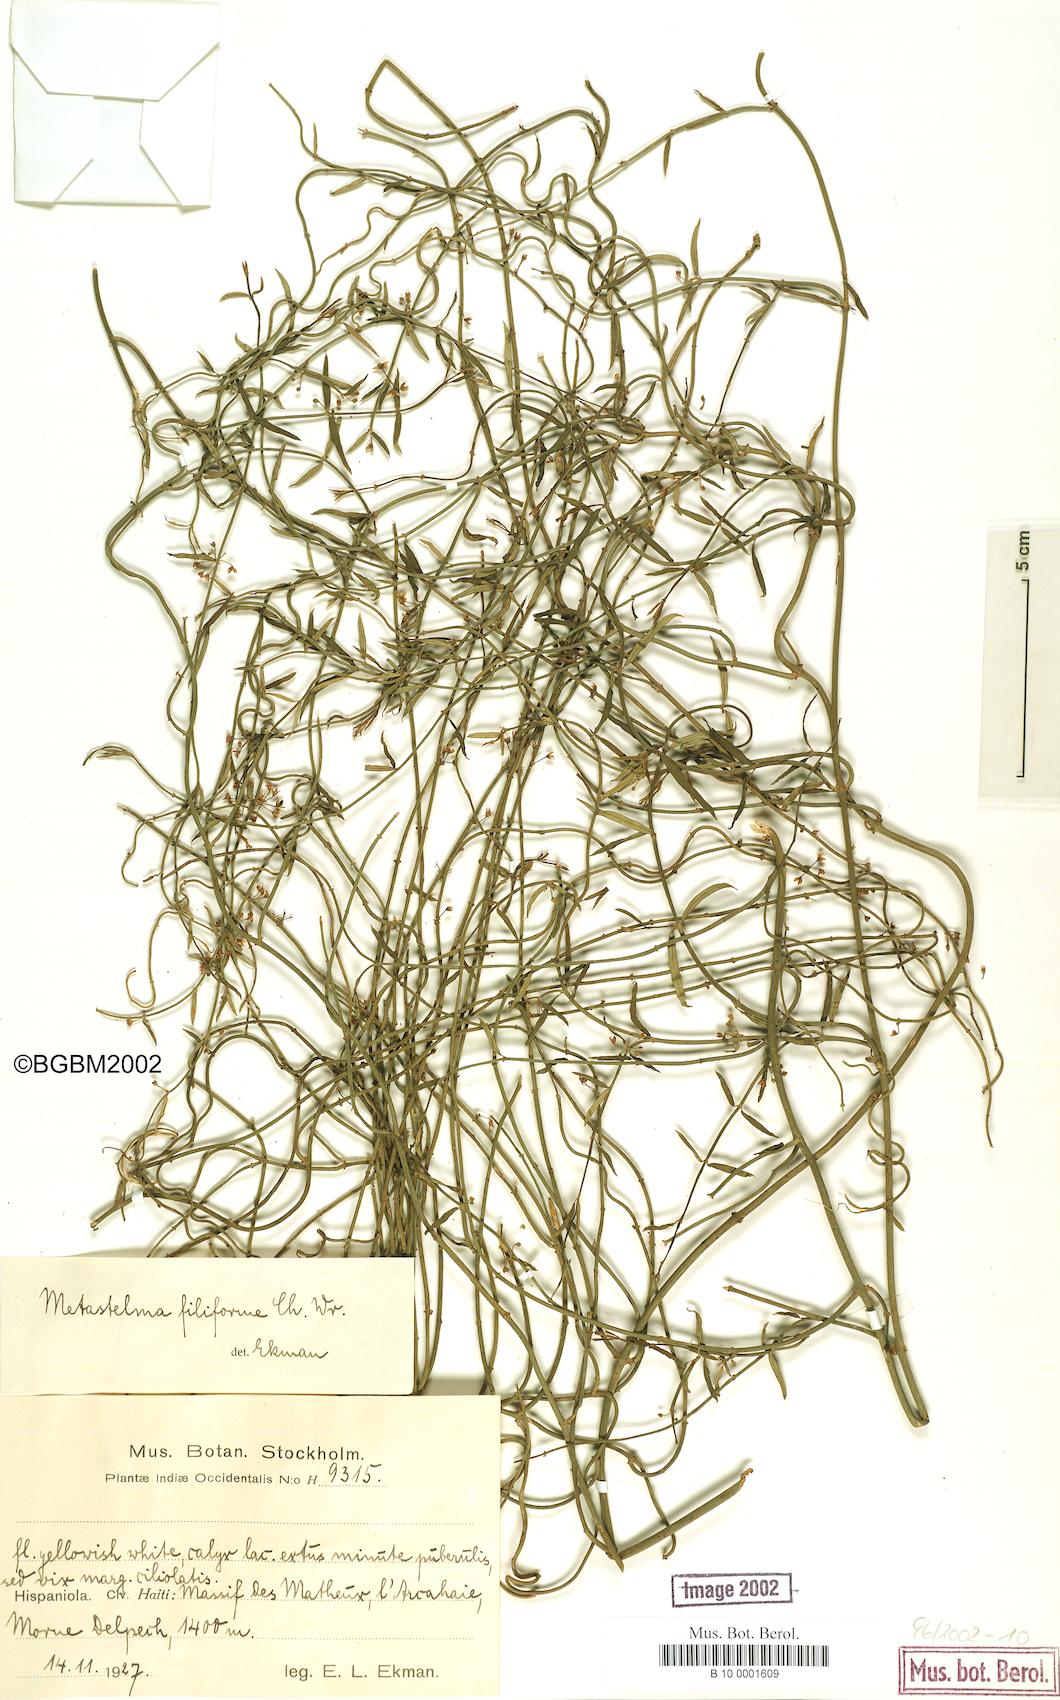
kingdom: Plantae
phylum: Tracheophyta
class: Magnoliopsida
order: Gentianales
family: Apocynaceae
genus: Orthosia
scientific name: Orthosia scoparia
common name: Leafless swallow-wort
